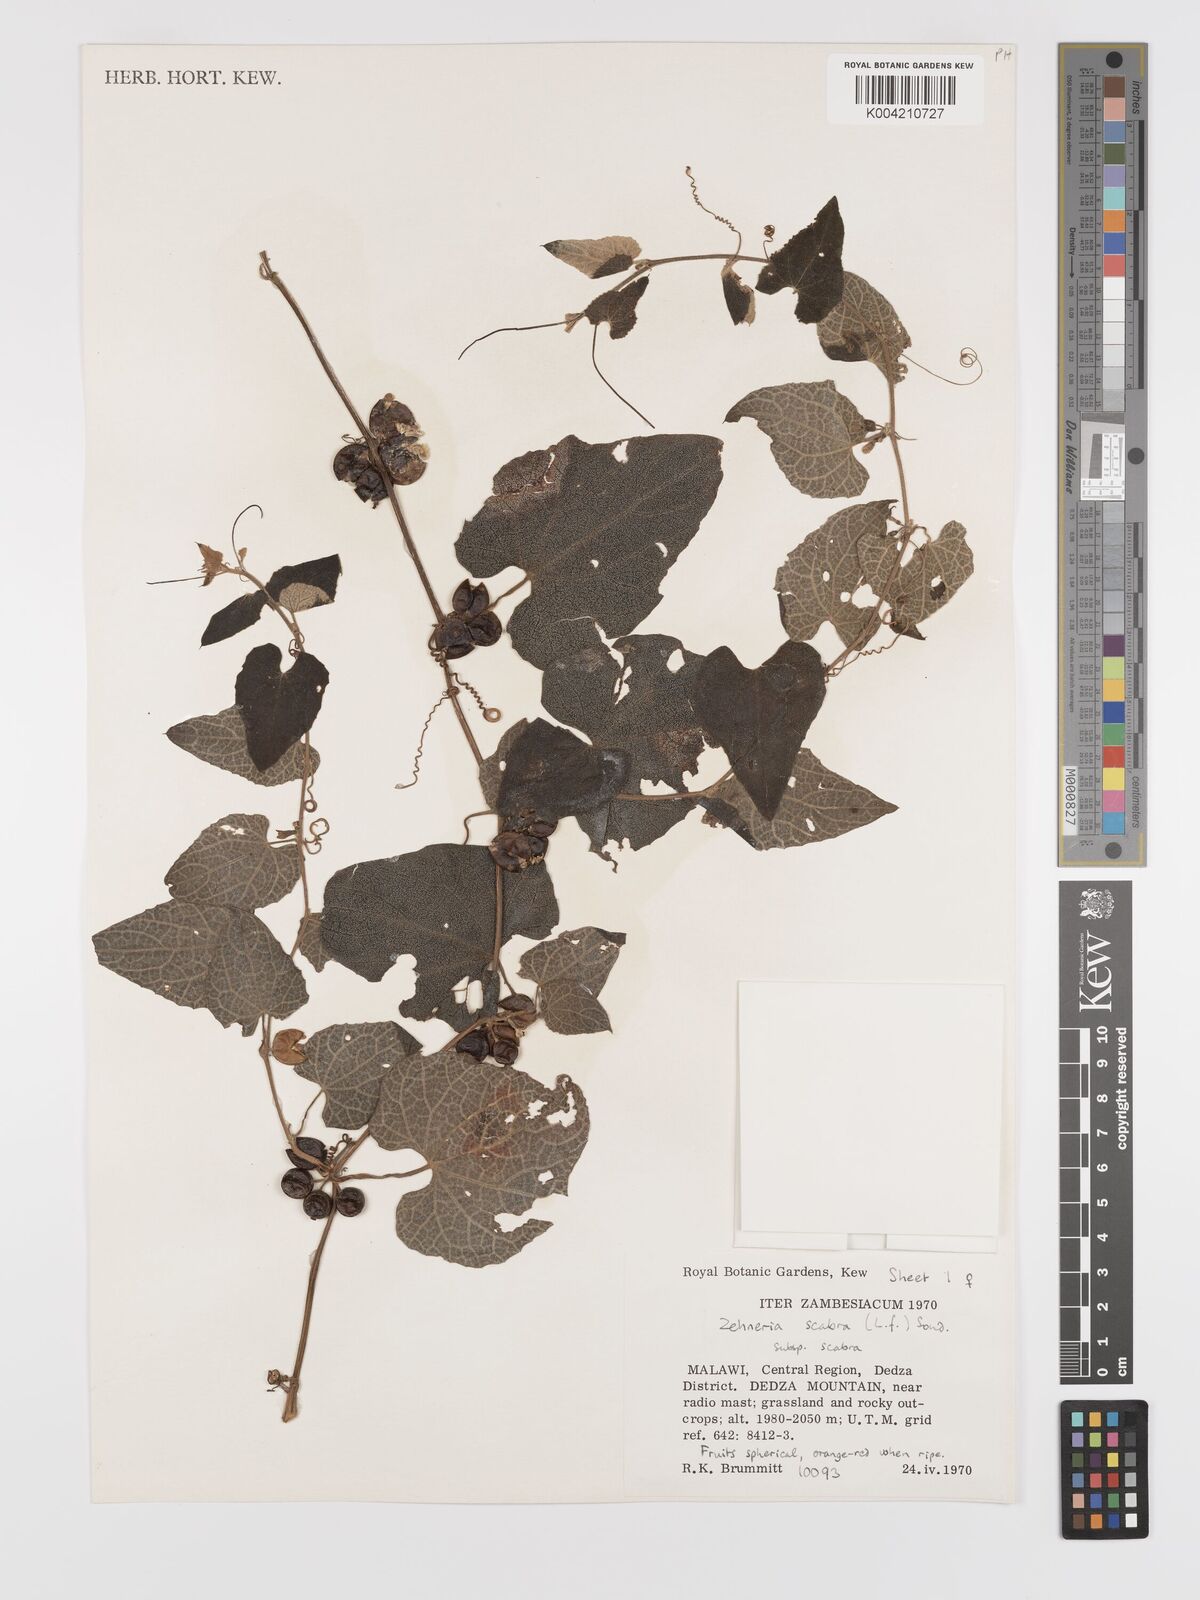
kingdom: Plantae
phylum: Tracheophyta
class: Magnoliopsida
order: Cucurbitales
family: Cucurbitaceae
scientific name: Cucurbitaceae
